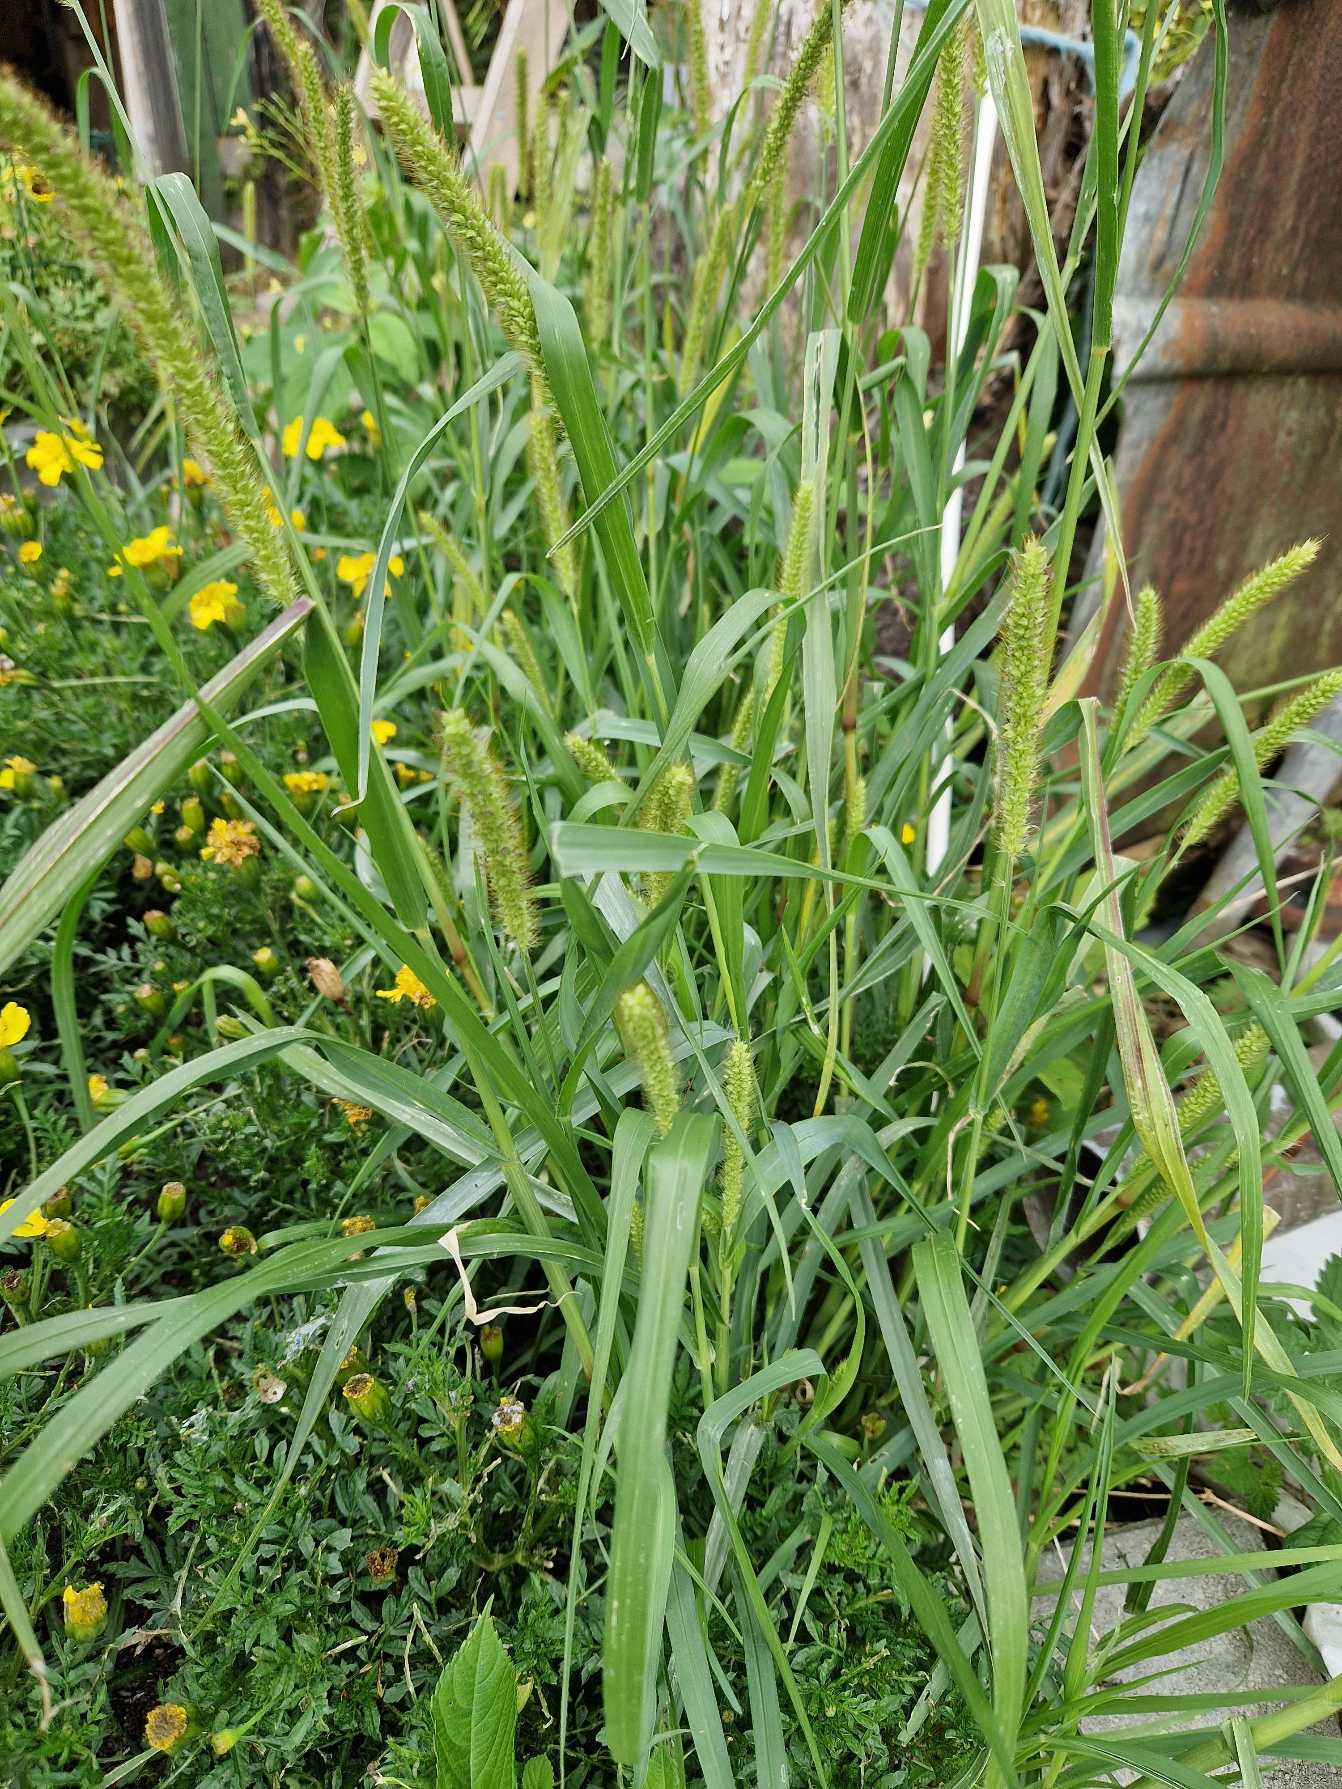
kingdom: Plantae
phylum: Tracheophyta
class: Liliopsida
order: Poales
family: Poaceae
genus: Setaria
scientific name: Setaria pumila
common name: Blågrøn skærmaks
